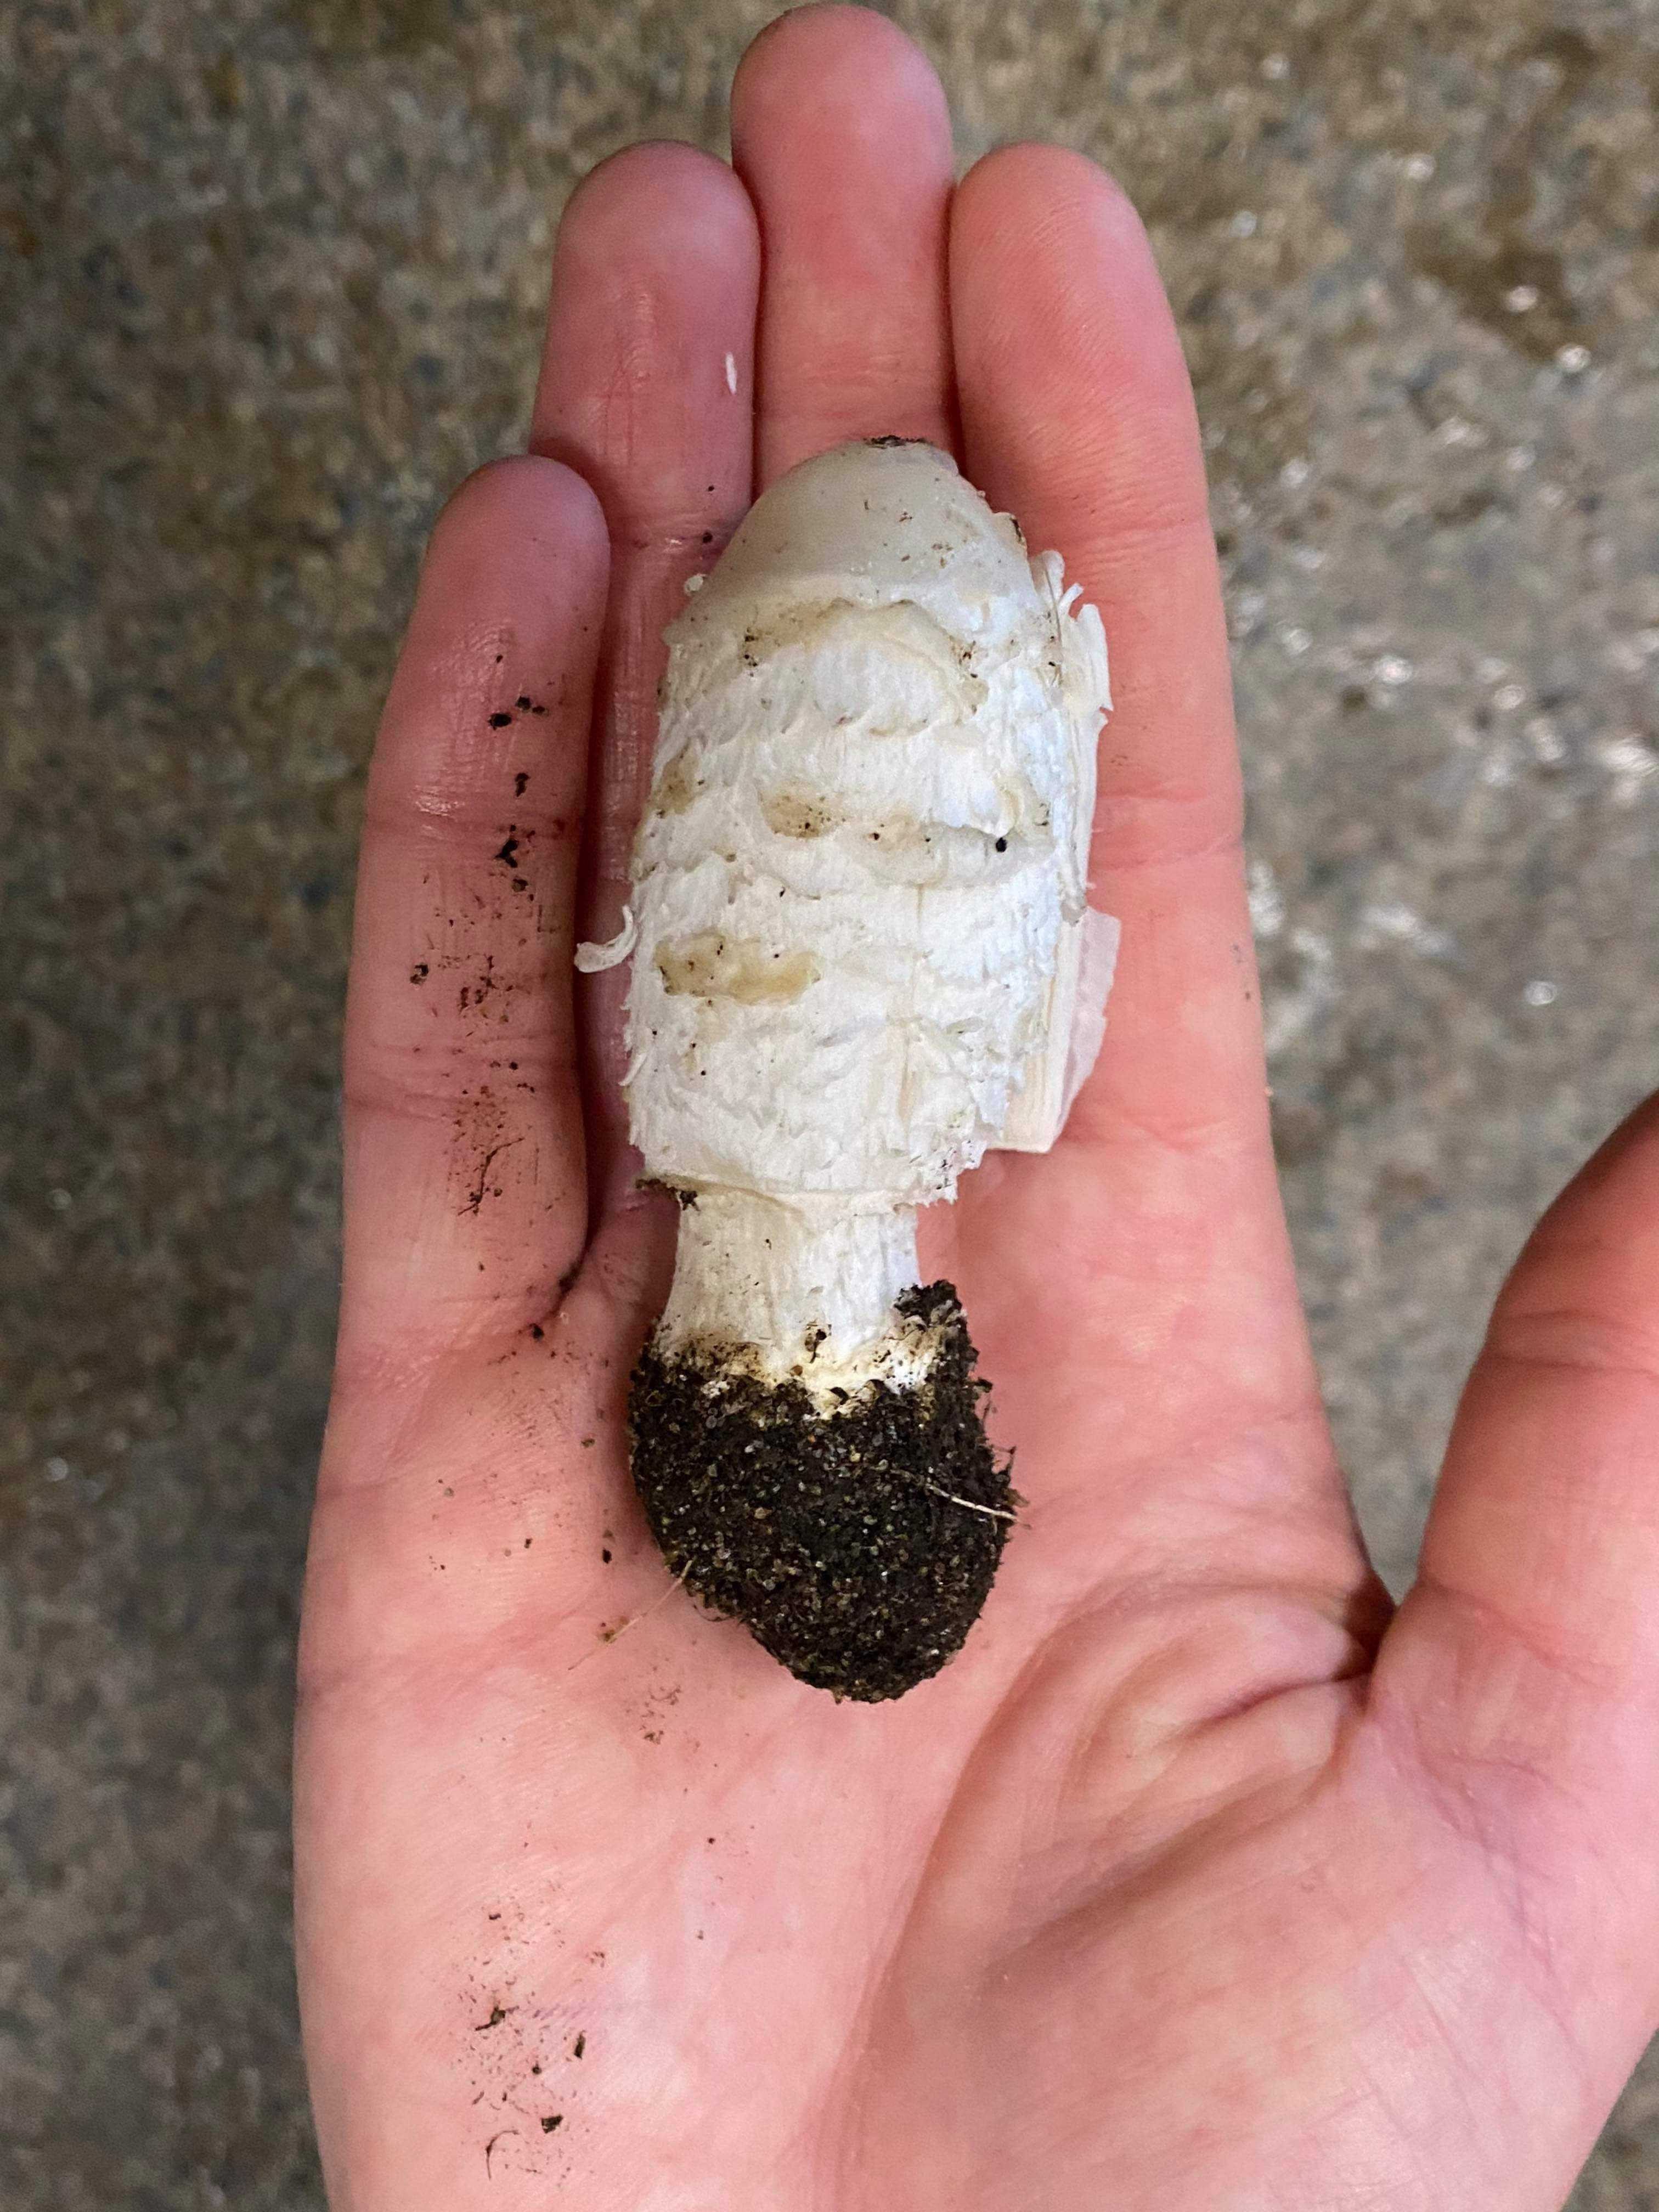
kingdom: Fungi
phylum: Basidiomycota
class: Agaricomycetes
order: Agaricales
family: Agaricaceae
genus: Coprinus
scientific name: Coprinus comatus
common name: stor parykhat
